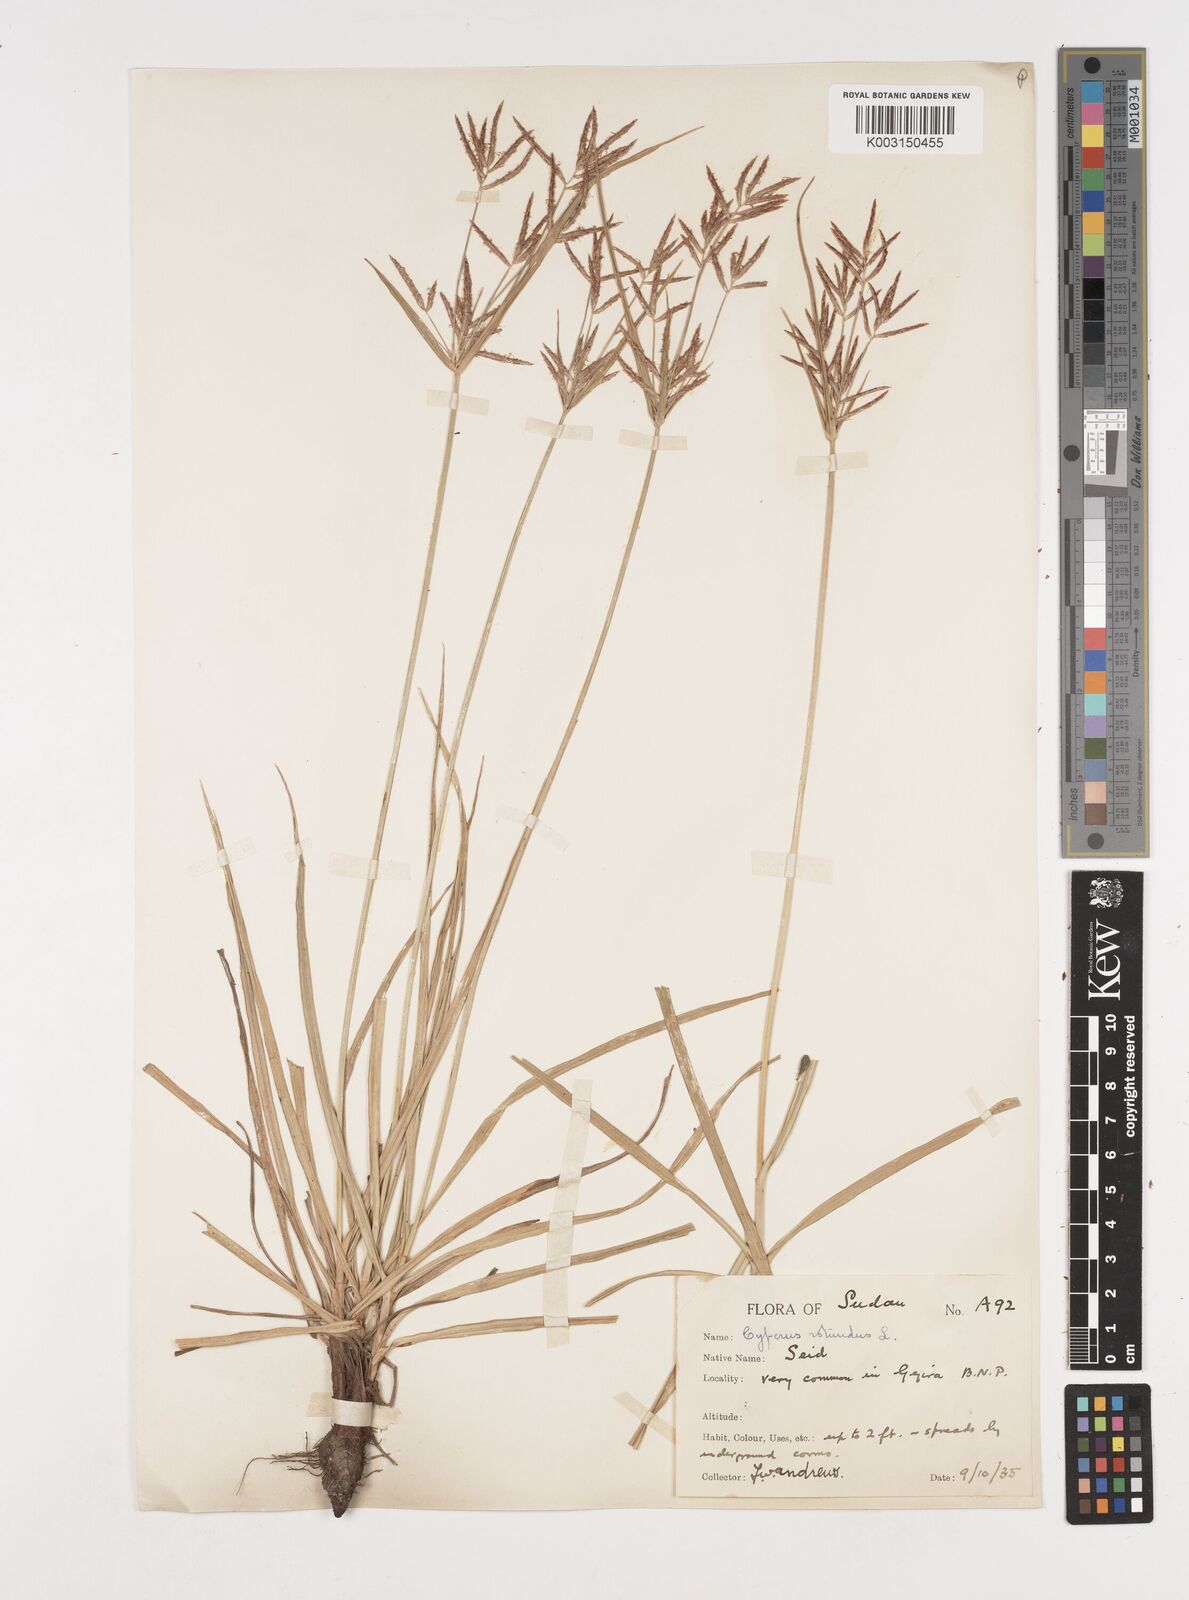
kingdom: Plantae
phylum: Tracheophyta
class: Liliopsida
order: Poales
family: Cyperaceae
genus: Cyperus
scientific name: Cyperus rotundus
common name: Nutgrass
